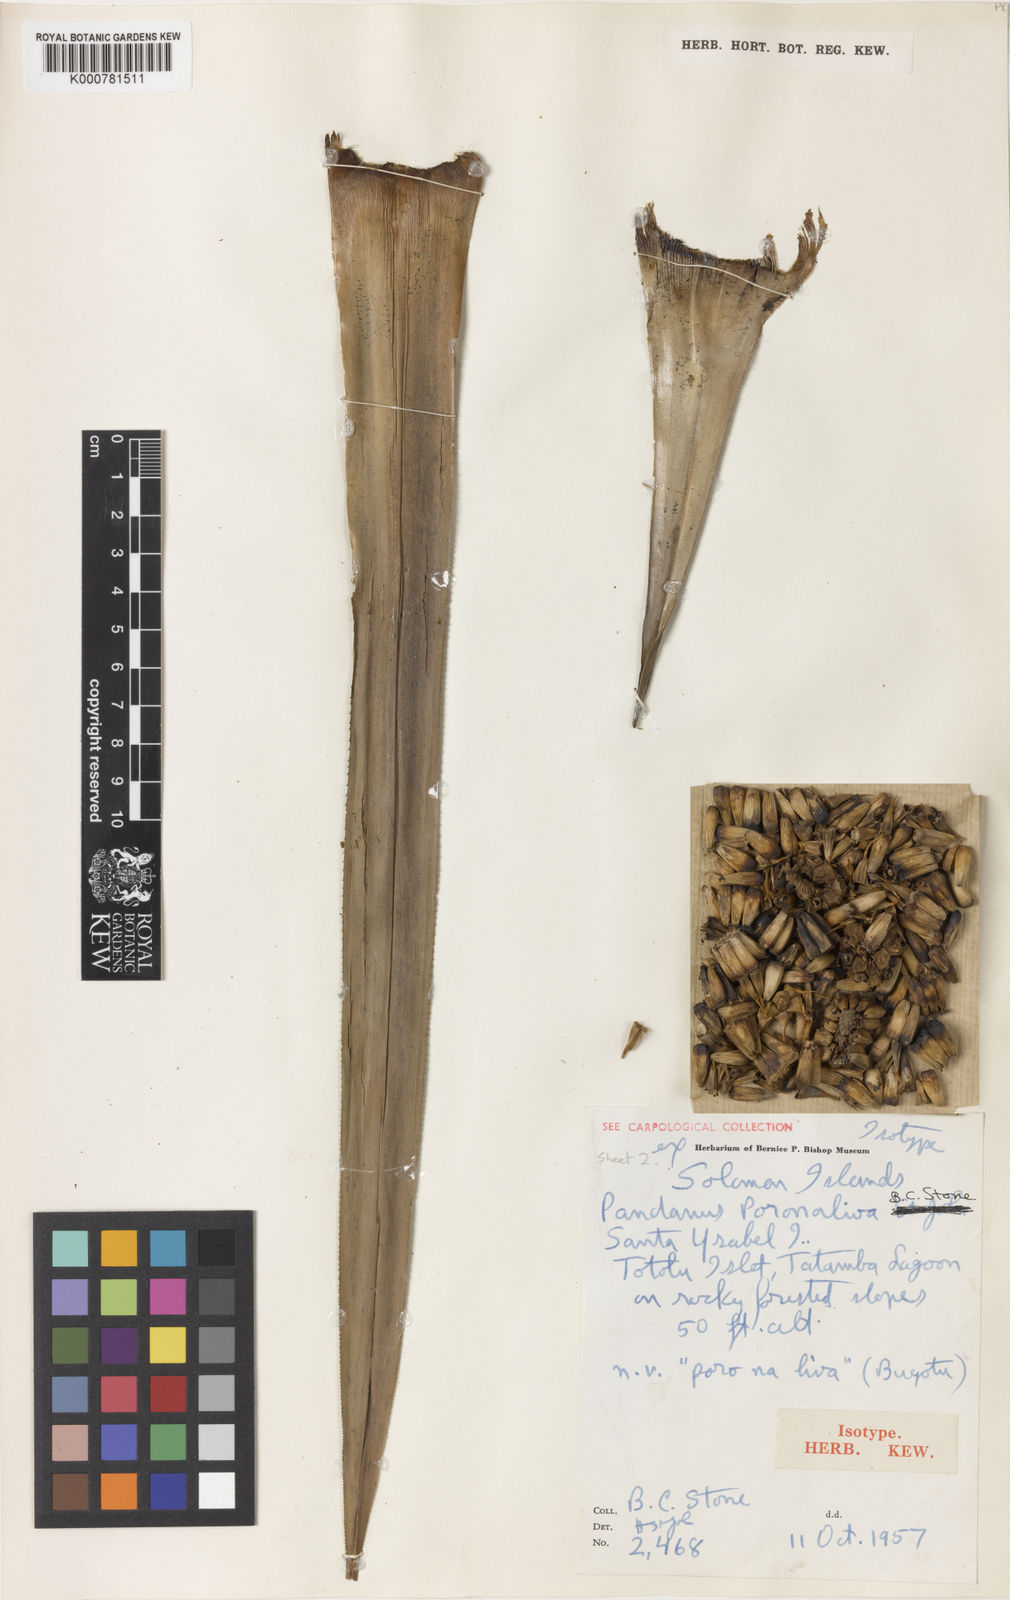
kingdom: Plantae
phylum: Tracheophyta
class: Liliopsida
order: Pandanales
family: Pandanaceae
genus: Pandanus
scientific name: Pandanus
